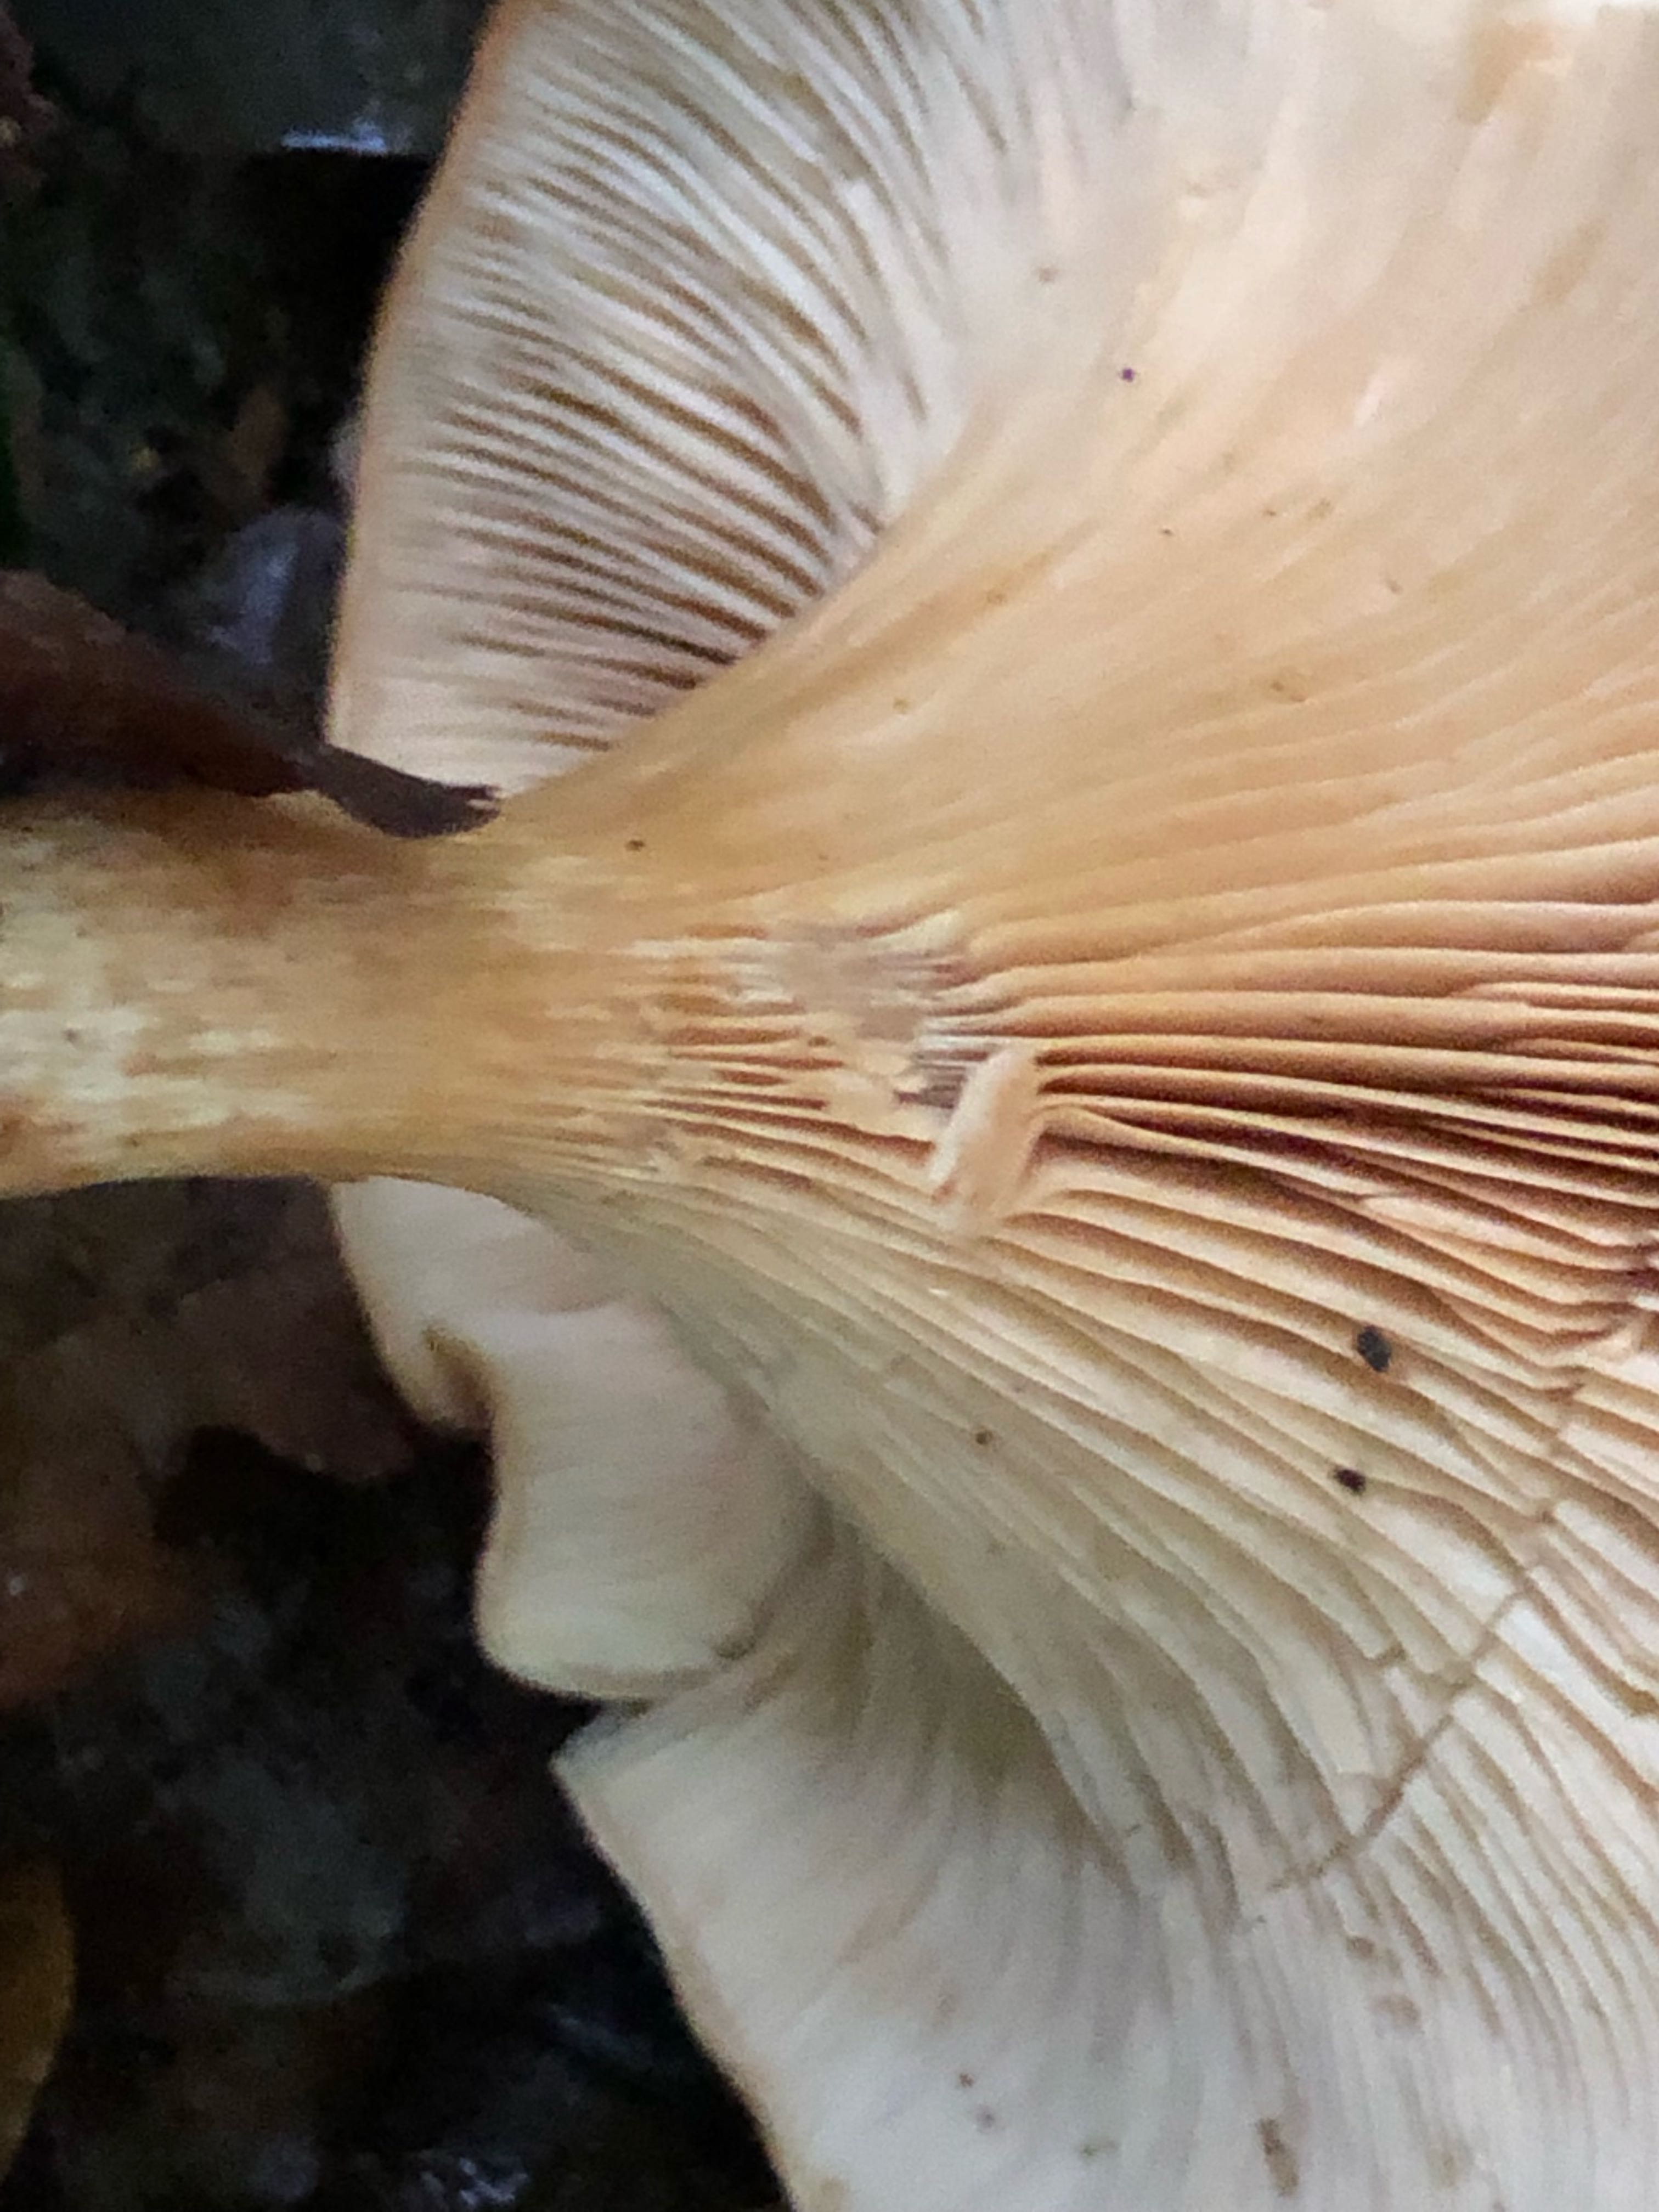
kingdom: Fungi
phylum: Basidiomycota
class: Agaricomycetes
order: Agaricales
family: Tricholomataceae
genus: Paralepista
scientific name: Paralepista flaccida
